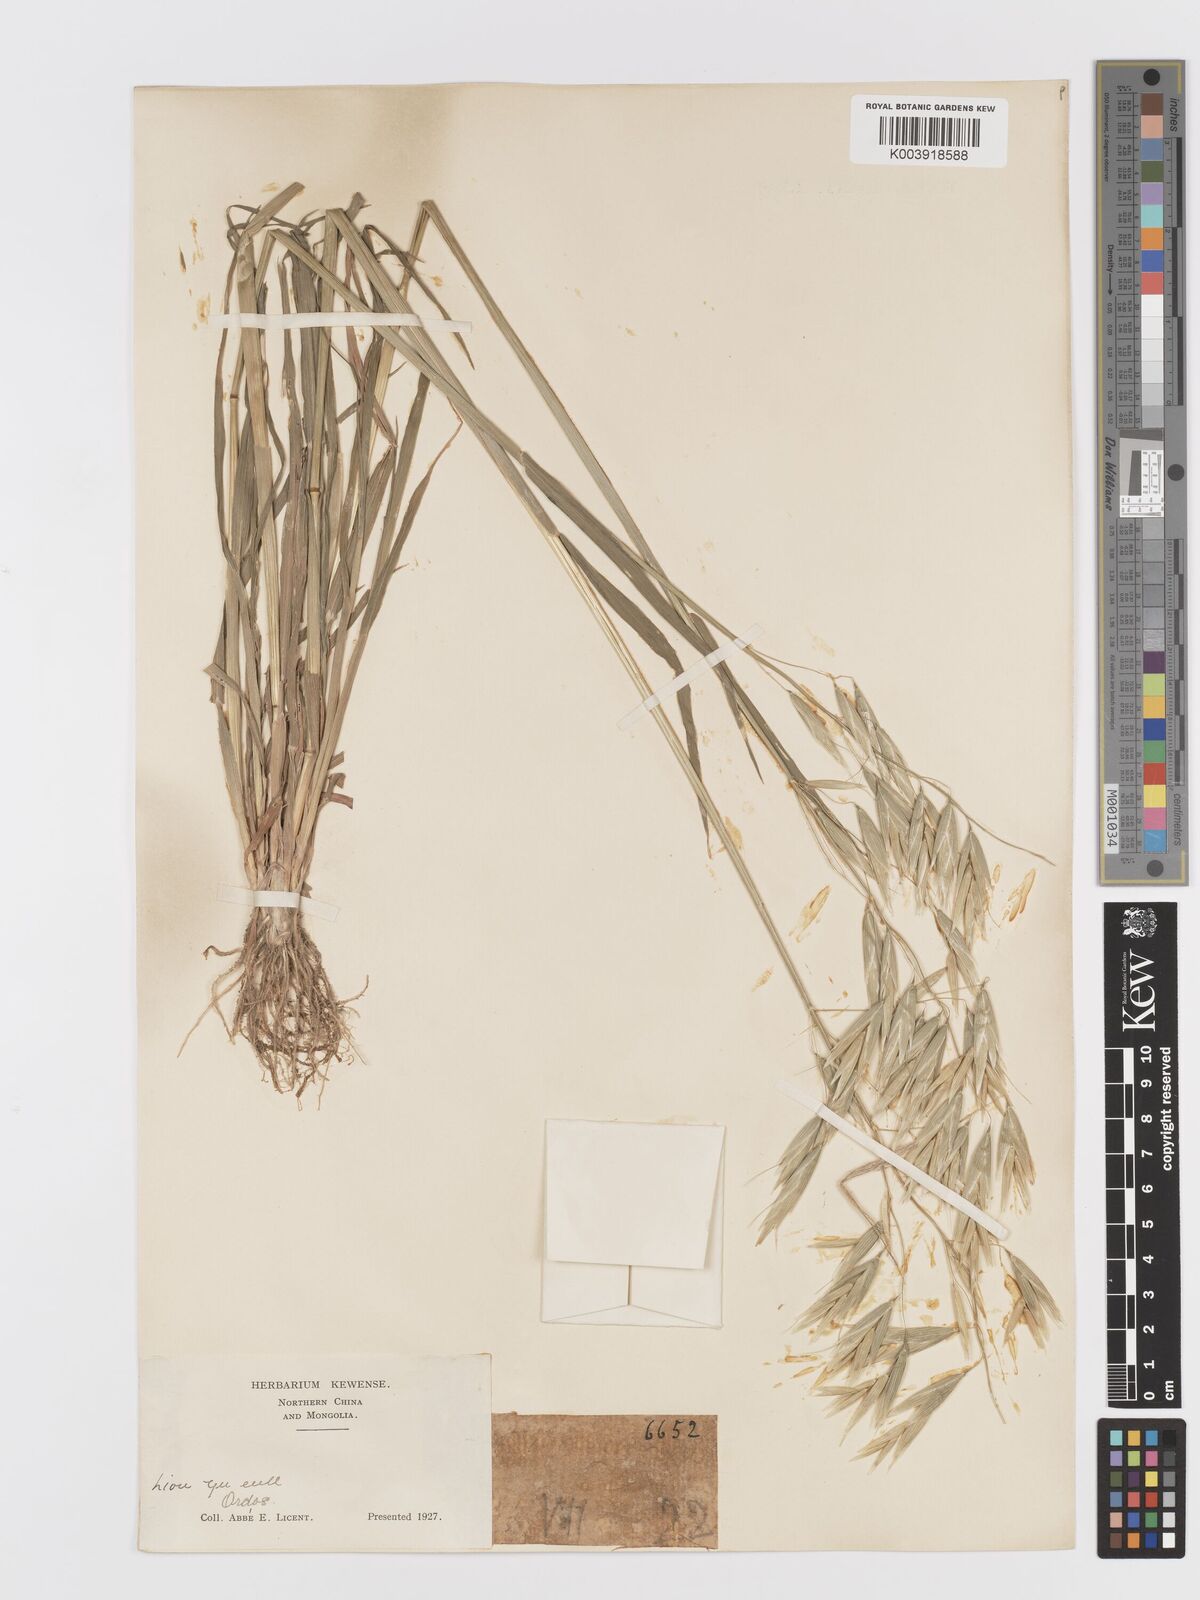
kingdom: Plantae
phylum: Tracheophyta
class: Liliopsida
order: Poales
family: Poaceae
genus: Avena
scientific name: Avena chinensis
